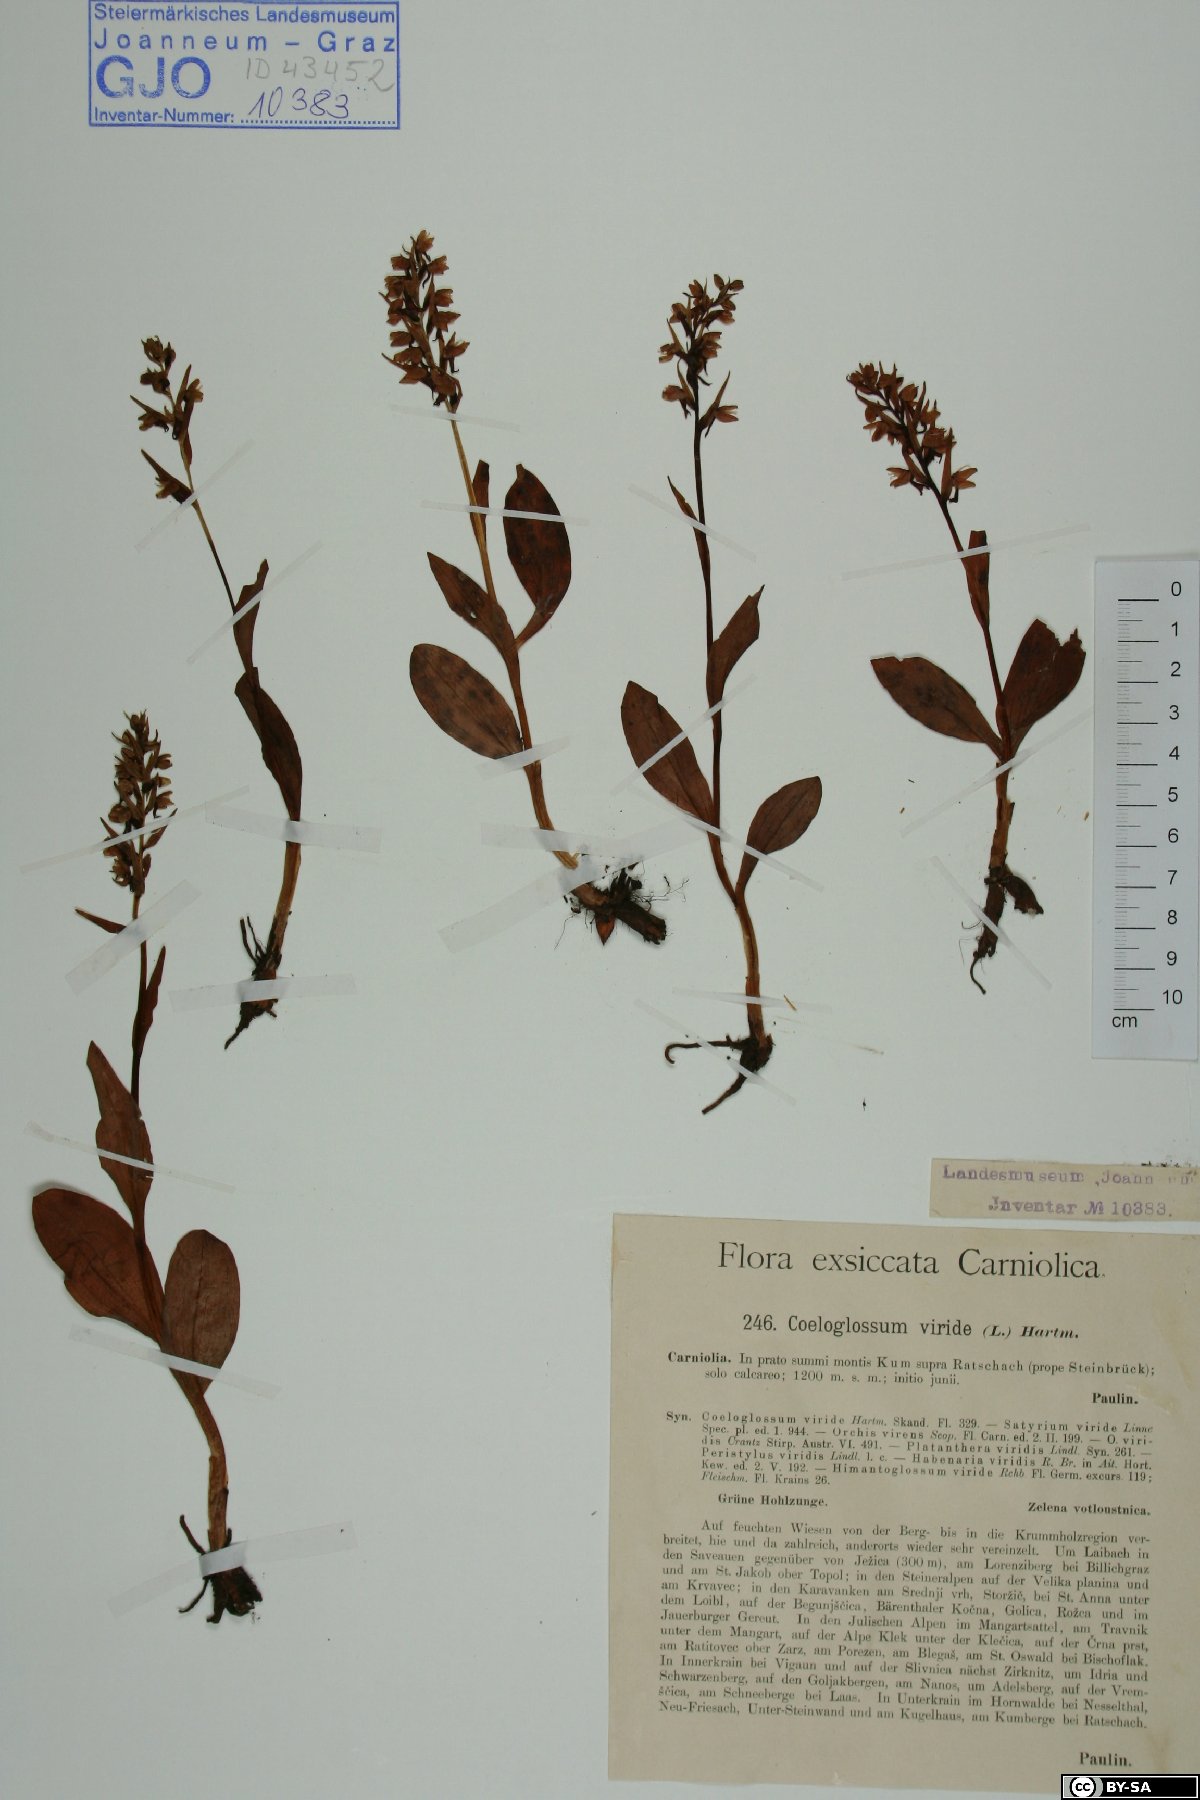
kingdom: Plantae
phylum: Tracheophyta
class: Liliopsida
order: Asparagales
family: Orchidaceae
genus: Dactylorhiza
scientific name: Dactylorhiza viridis
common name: Longbract frog orchid
